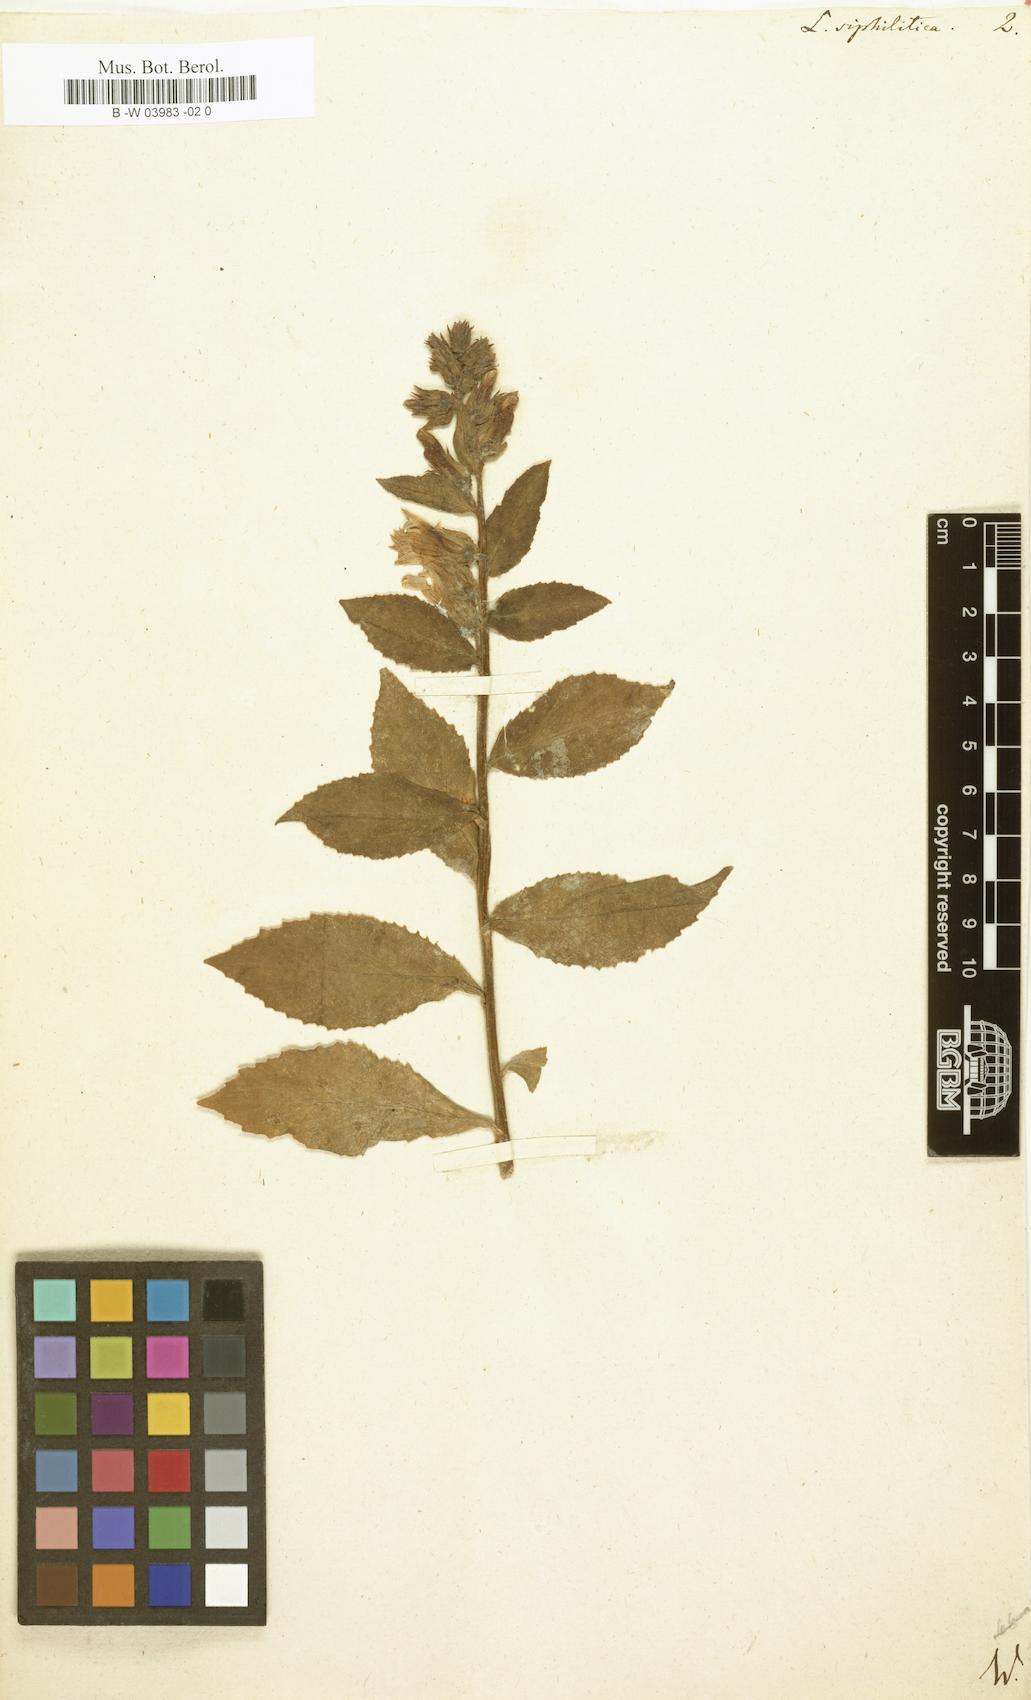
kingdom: Plantae
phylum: Tracheophyta
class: Magnoliopsida
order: Asterales
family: Campanulaceae
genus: Lobelia
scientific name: Lobelia siphilitica
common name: Great lobelia
